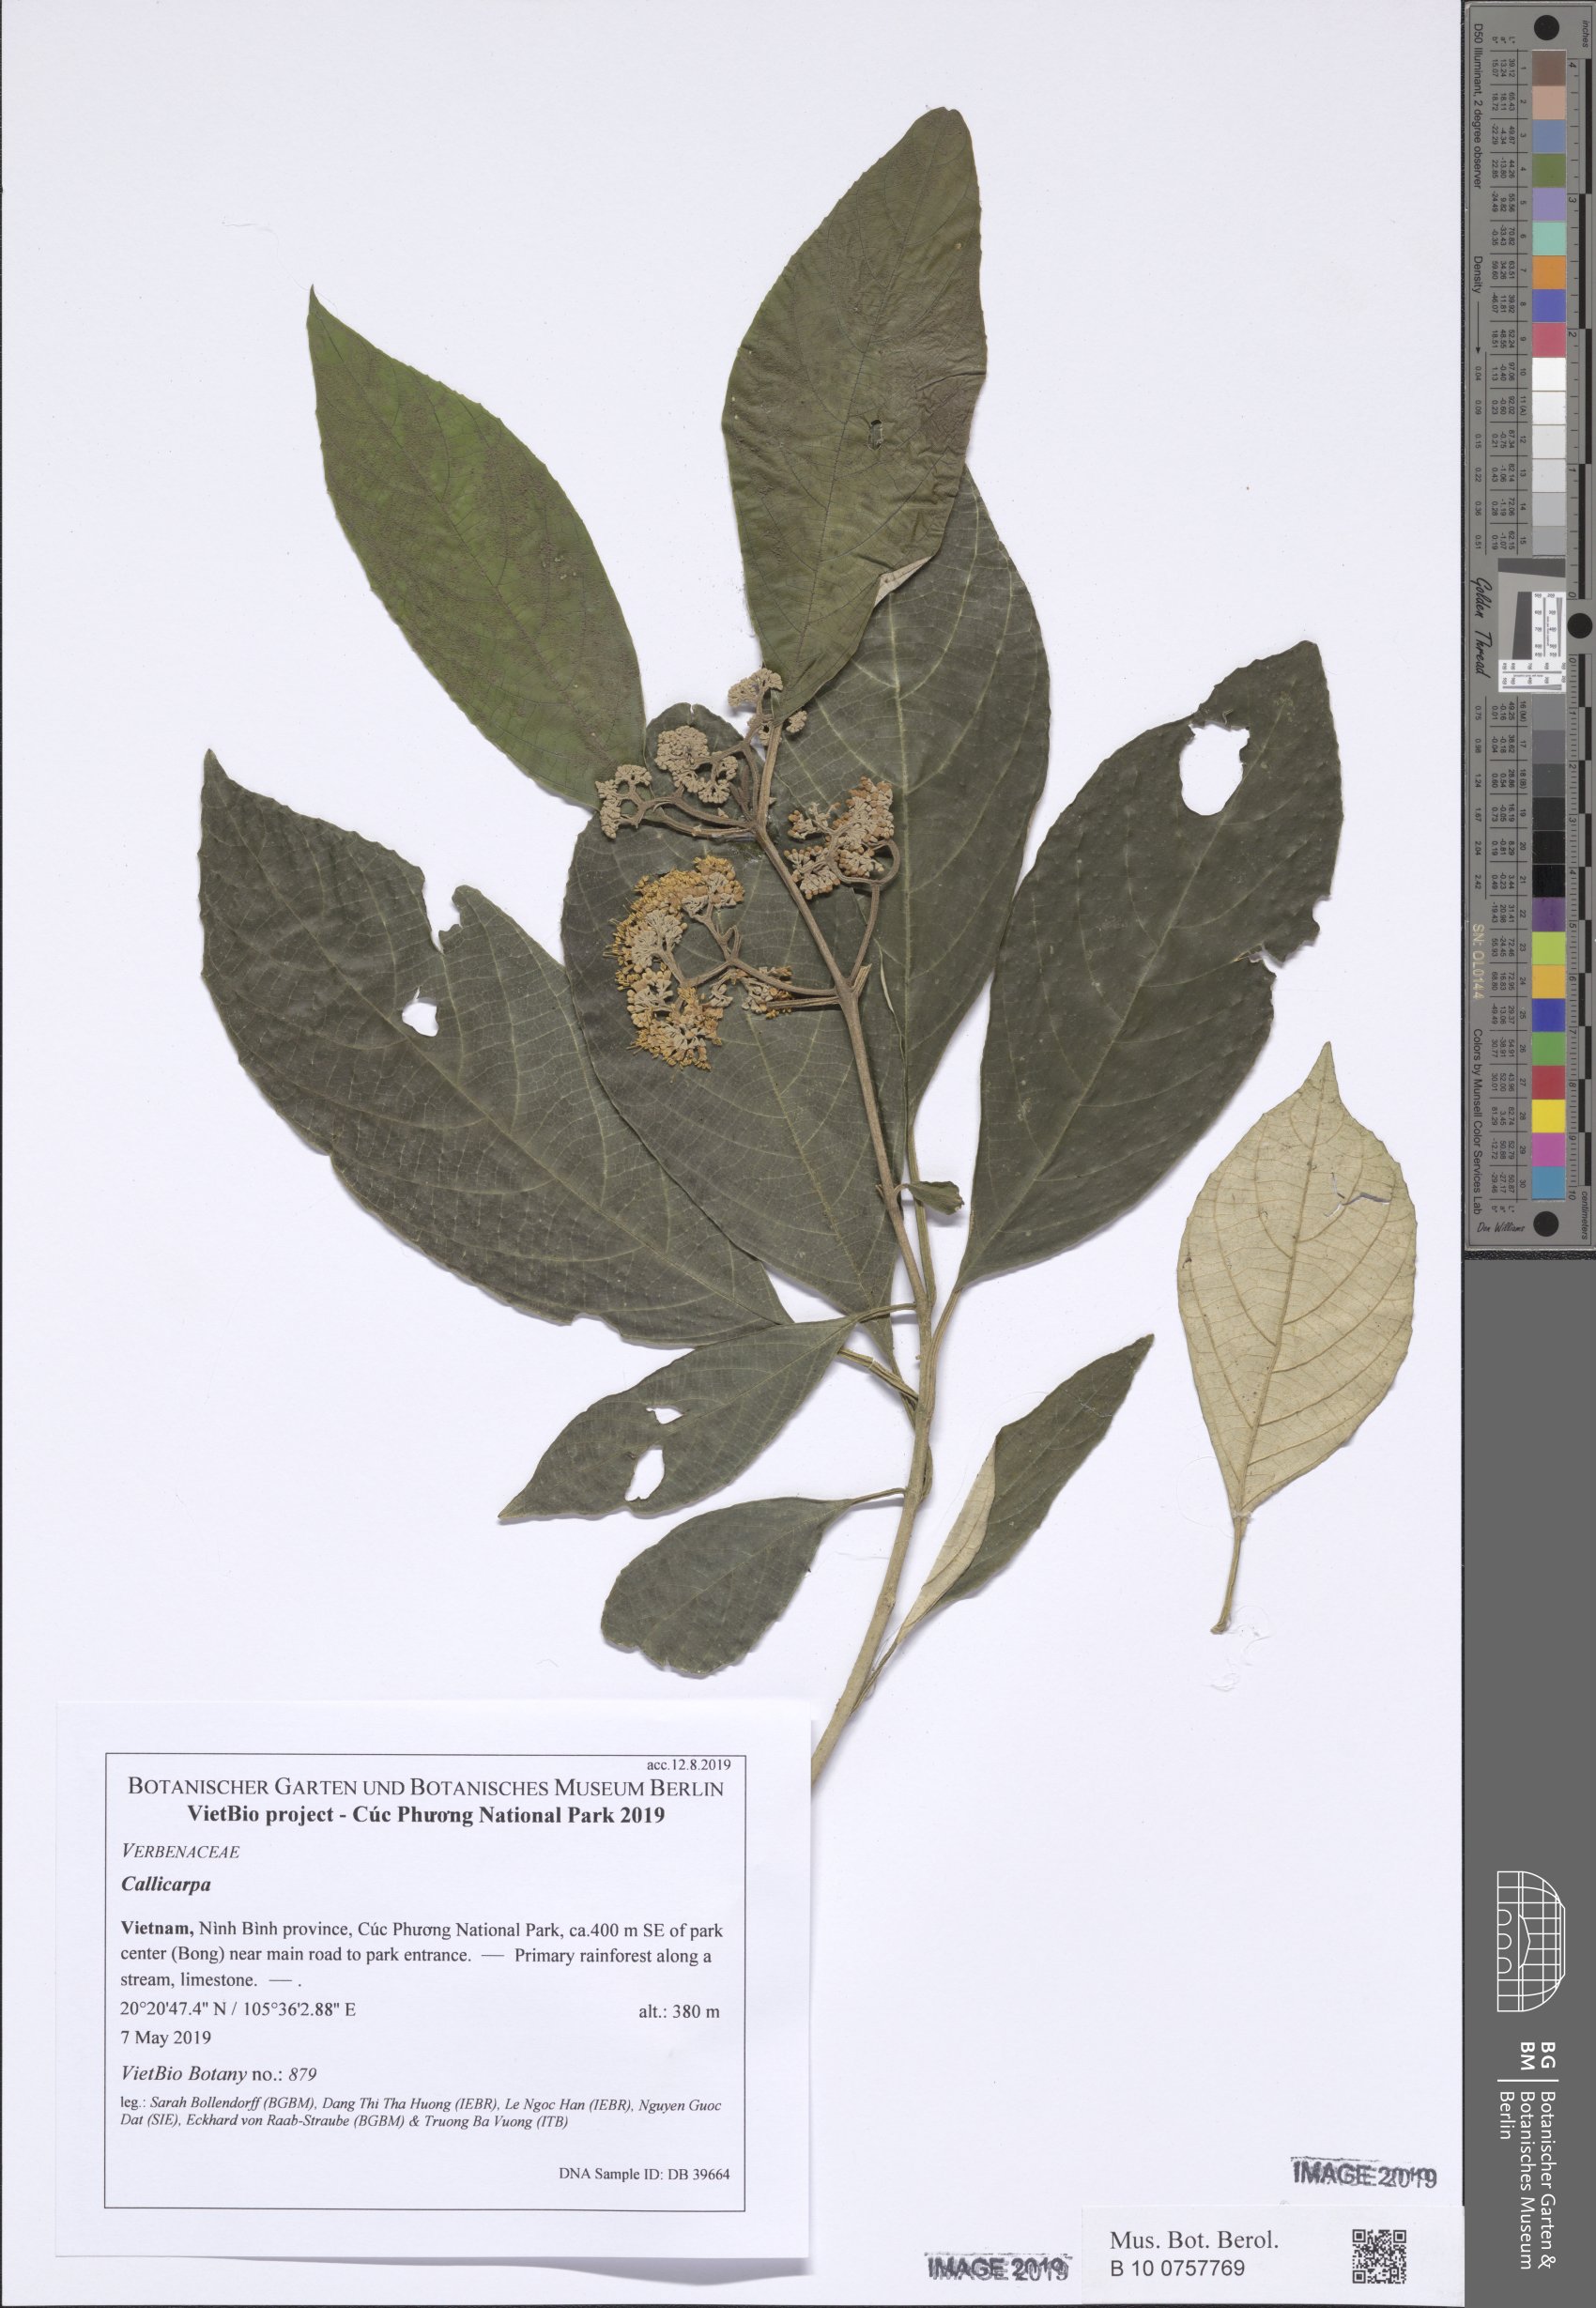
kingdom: Plantae
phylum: Tracheophyta
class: Magnoliopsida
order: Lamiales
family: Lamiaceae
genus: Callicarpa
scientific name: Callicarpa petelotii
